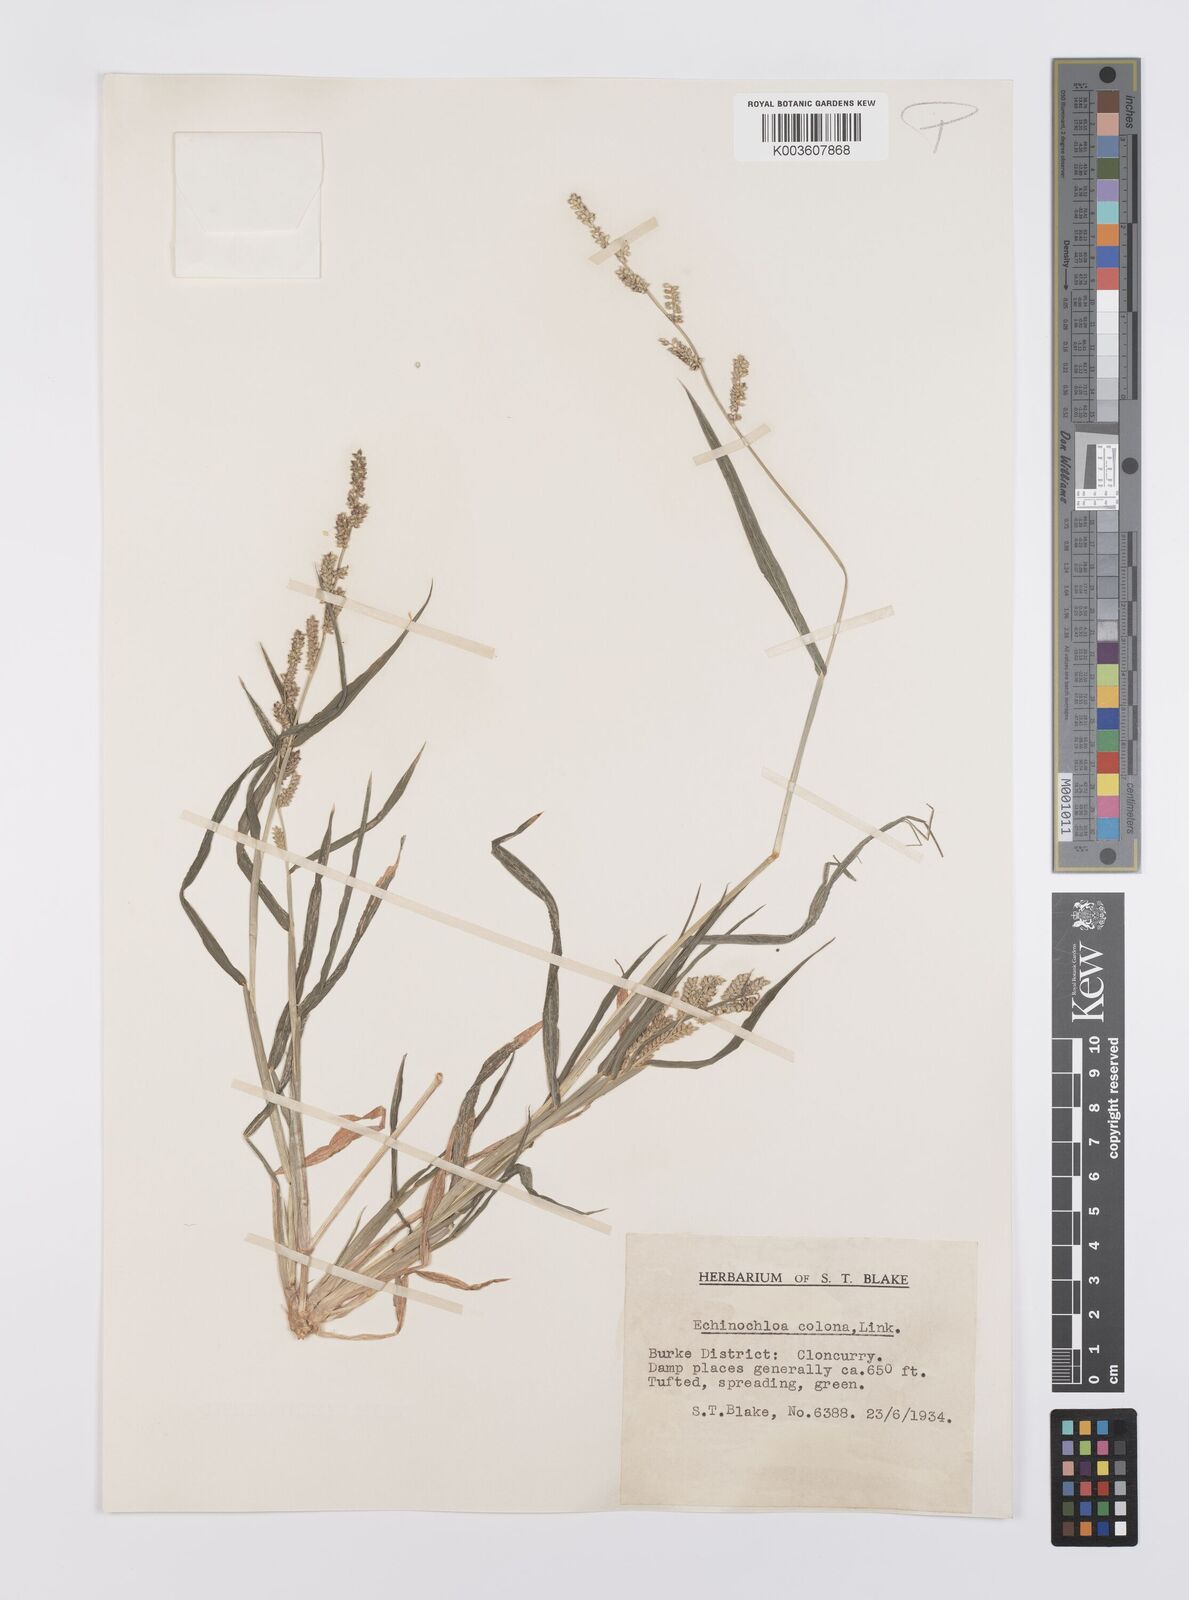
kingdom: Plantae
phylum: Tracheophyta
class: Liliopsida
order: Poales
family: Poaceae
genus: Echinochloa
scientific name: Echinochloa colonum
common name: Jungle rice
